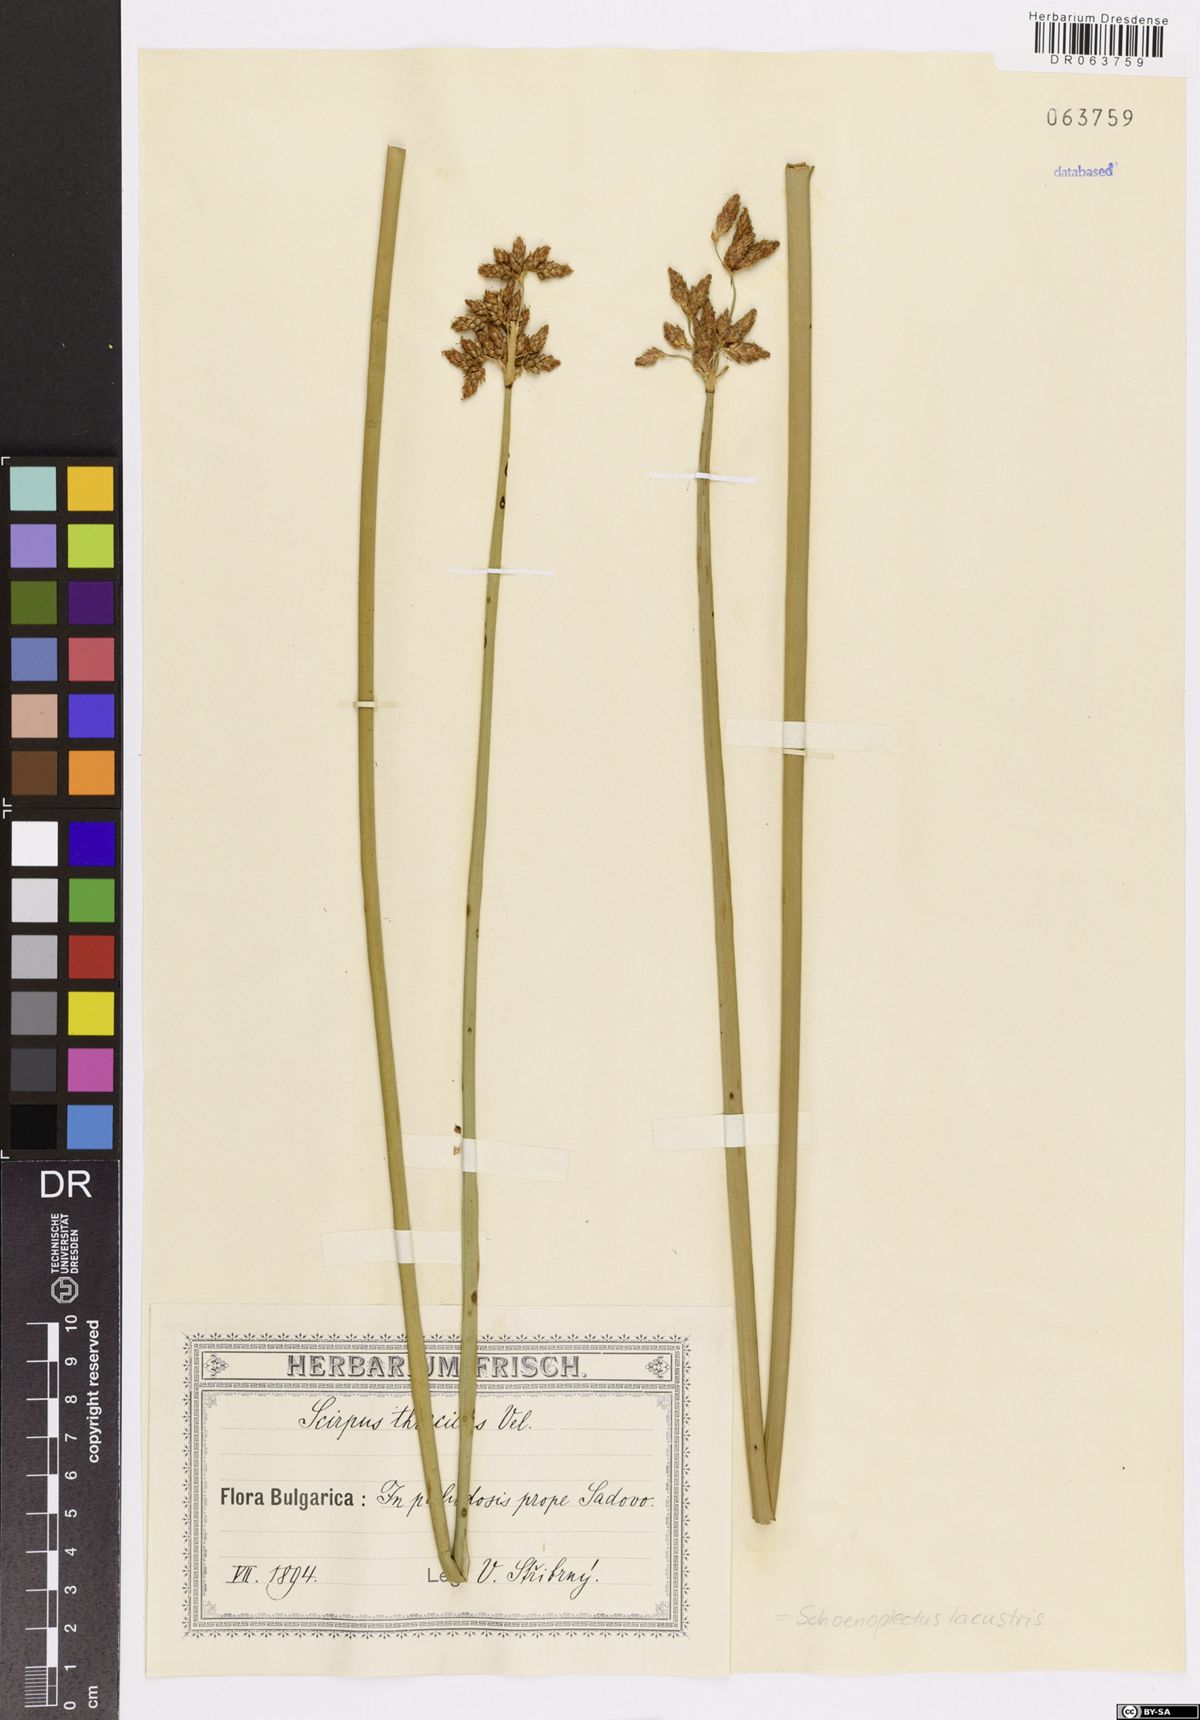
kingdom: Plantae
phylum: Tracheophyta
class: Liliopsida
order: Poales
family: Cyperaceae
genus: Schoenoplectus
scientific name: Schoenoplectus lacustris
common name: Common club-rush
